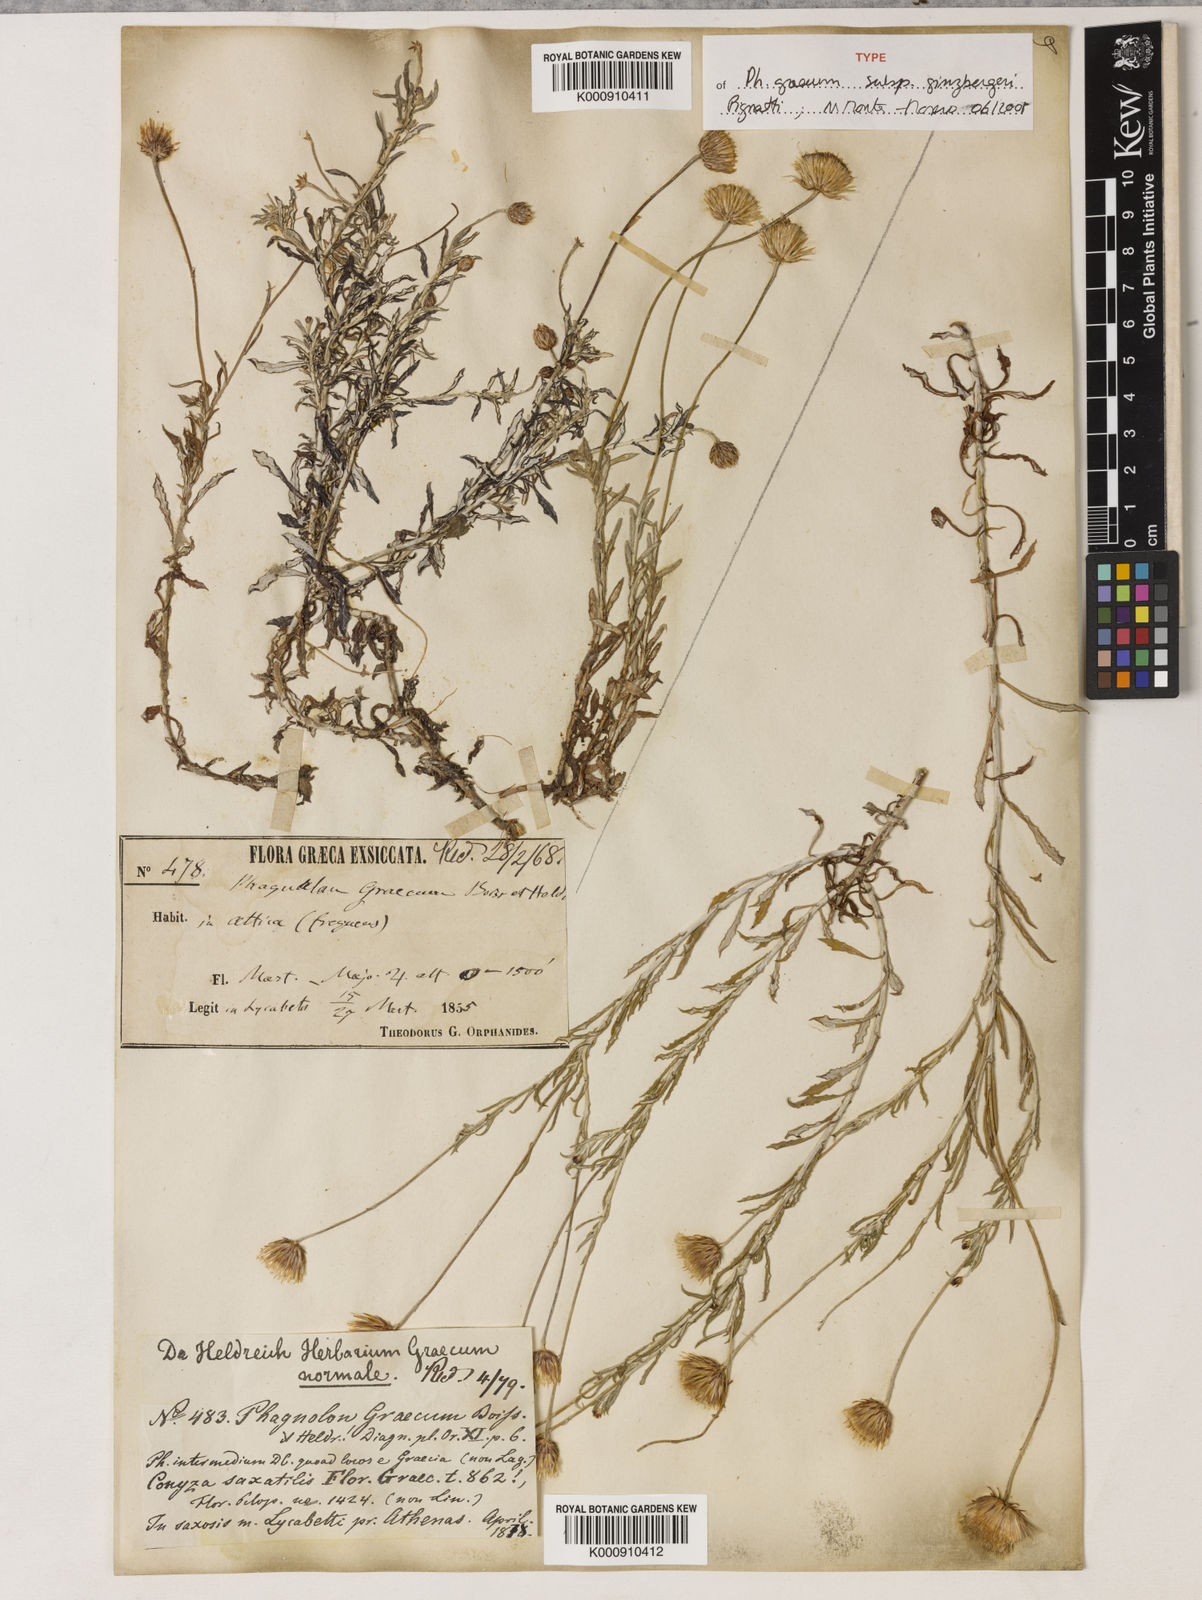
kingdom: Plantae
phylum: Tracheophyta
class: Magnoliopsida
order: Asterales
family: Asteraceae
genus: Phagnalon
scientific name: Phagnalon graecum
